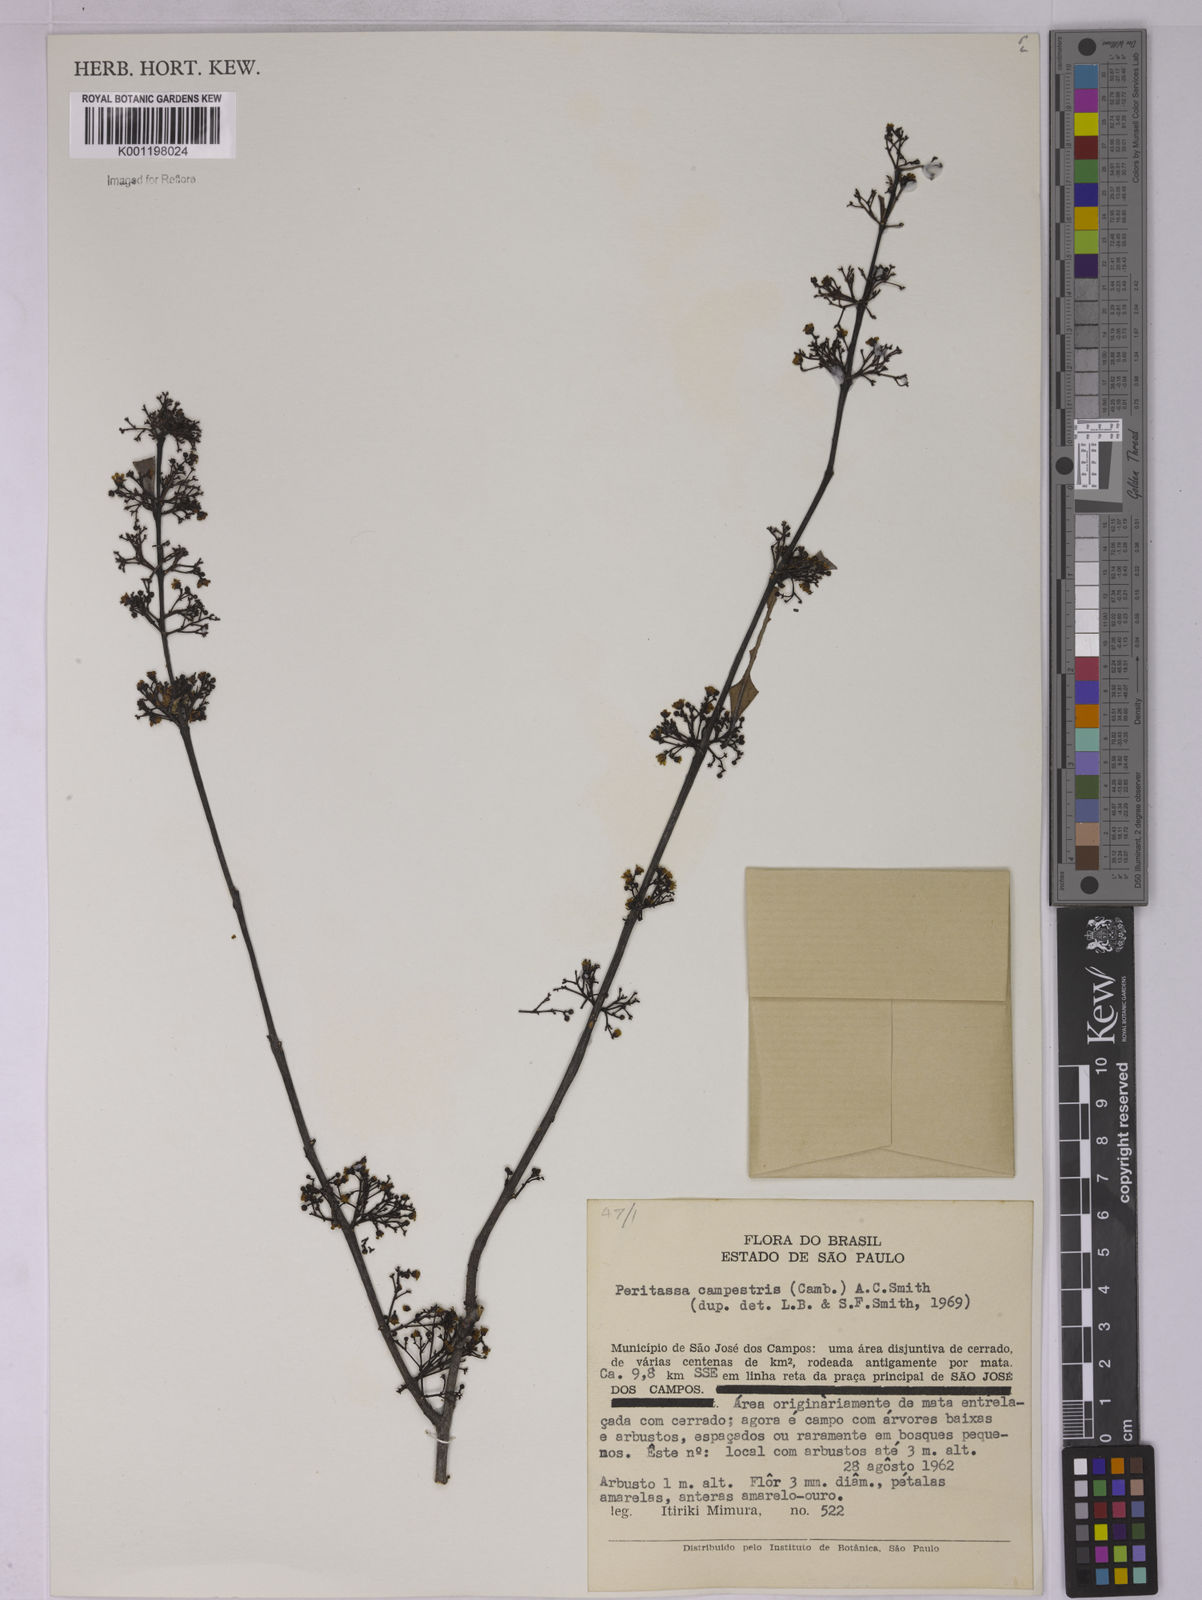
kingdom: Plantae
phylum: Tracheophyta
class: Magnoliopsida
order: Celastrales
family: Celastraceae
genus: Peritassa
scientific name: Peritassa campestris
